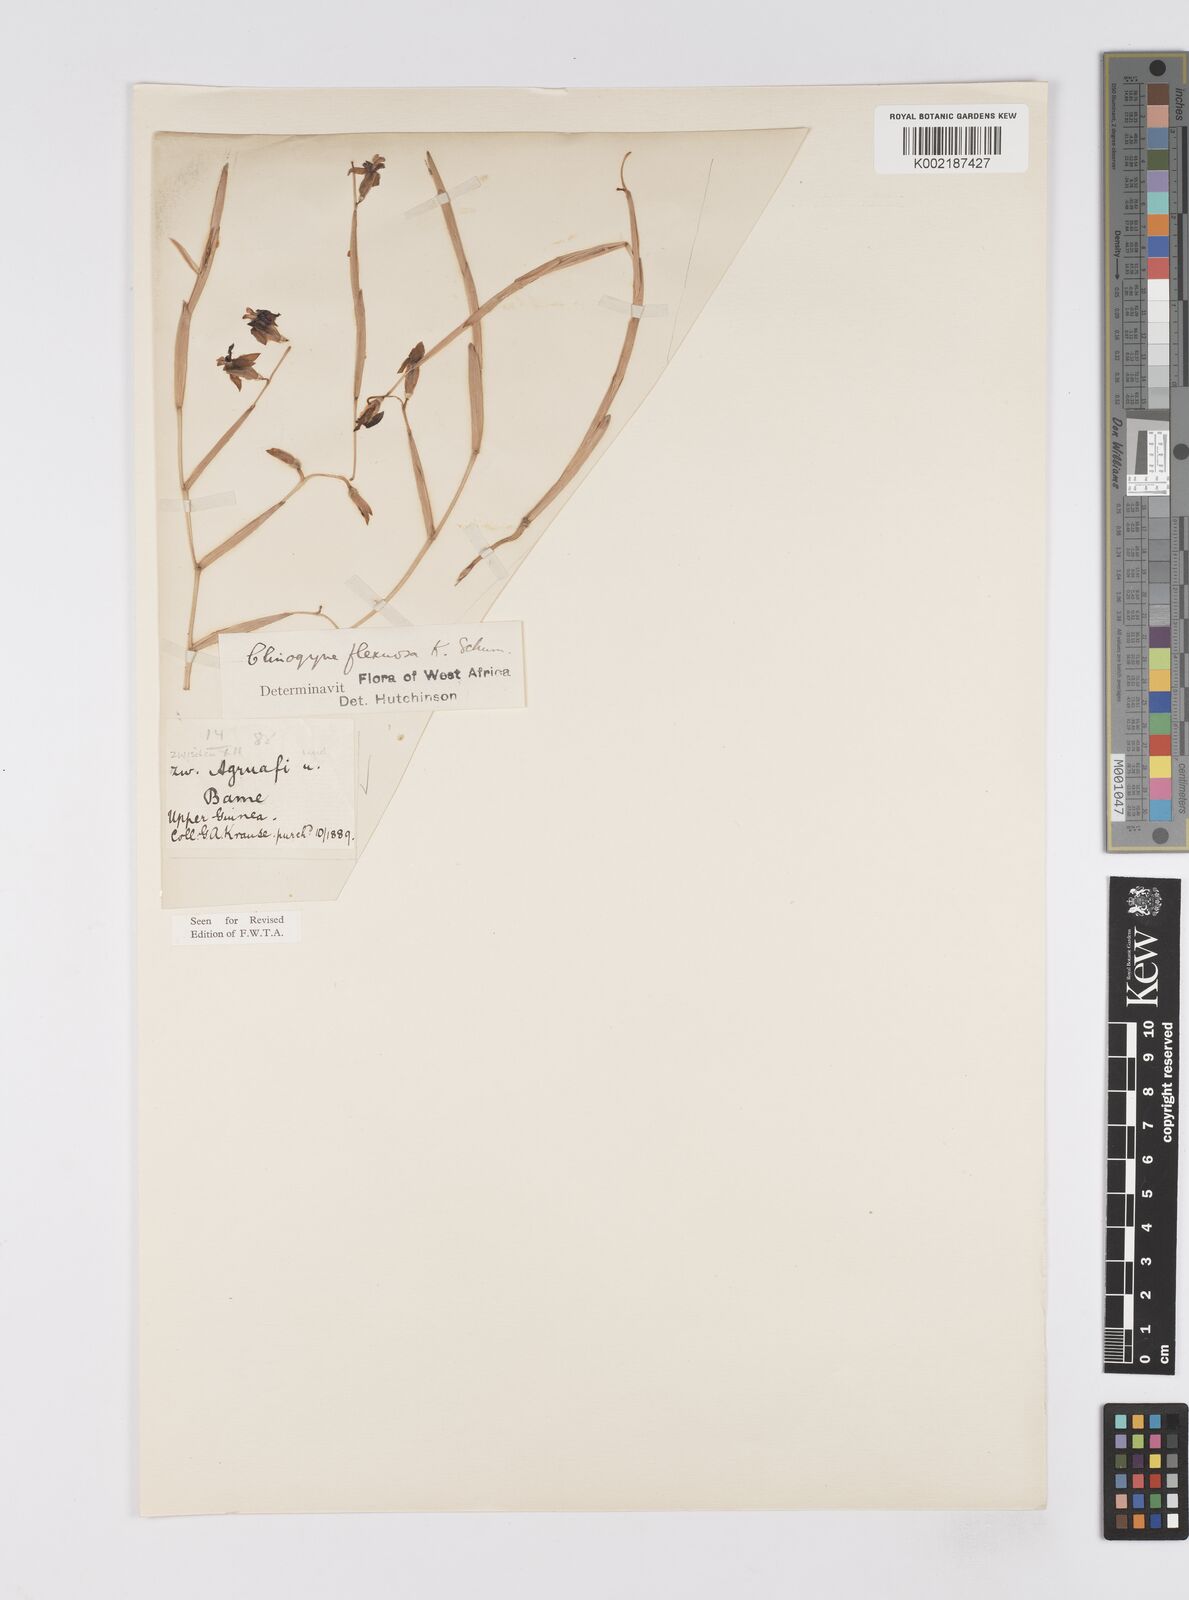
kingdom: Plantae
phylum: Tracheophyta
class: Liliopsida
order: Zingiberales
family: Marantaceae
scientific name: Marantaceae
